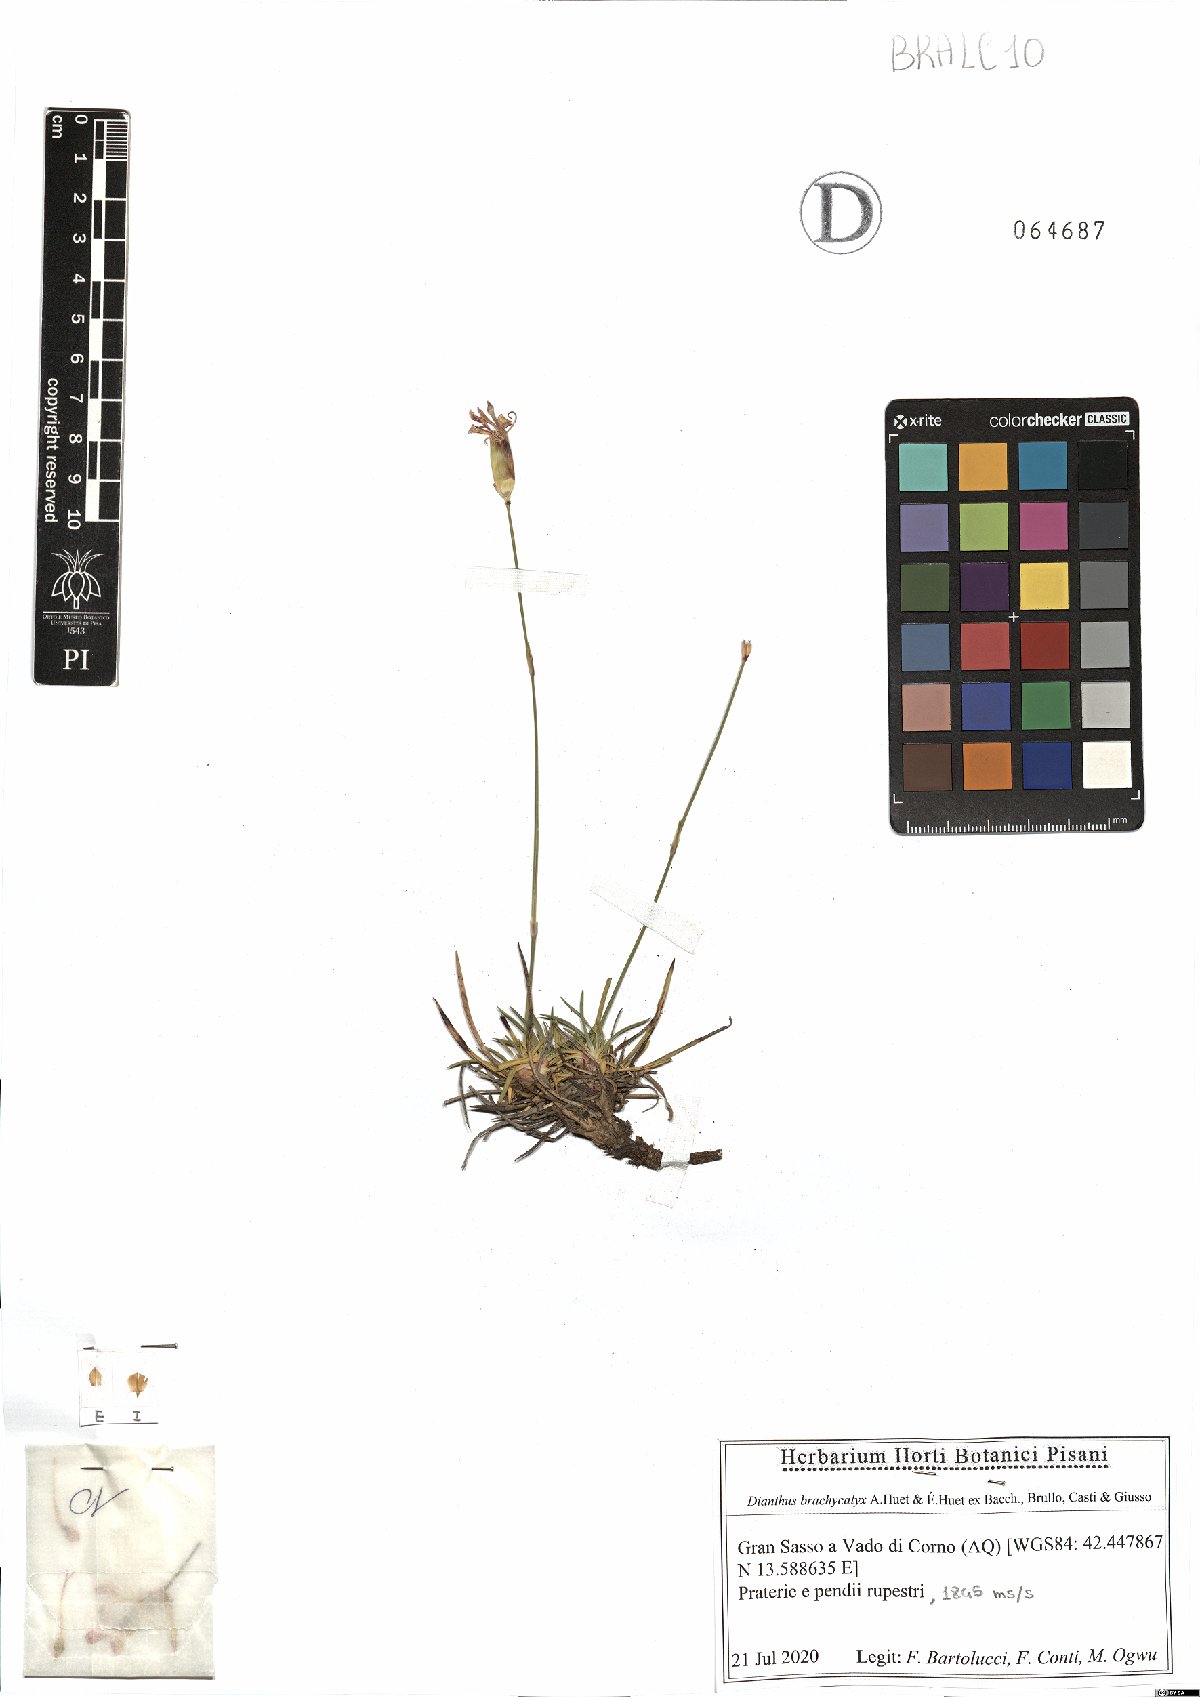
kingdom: Plantae
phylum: Tracheophyta
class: Magnoliopsida
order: Caryophyllales
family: Caryophyllaceae
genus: Dianthus
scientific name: Dianthus brachycalyx
